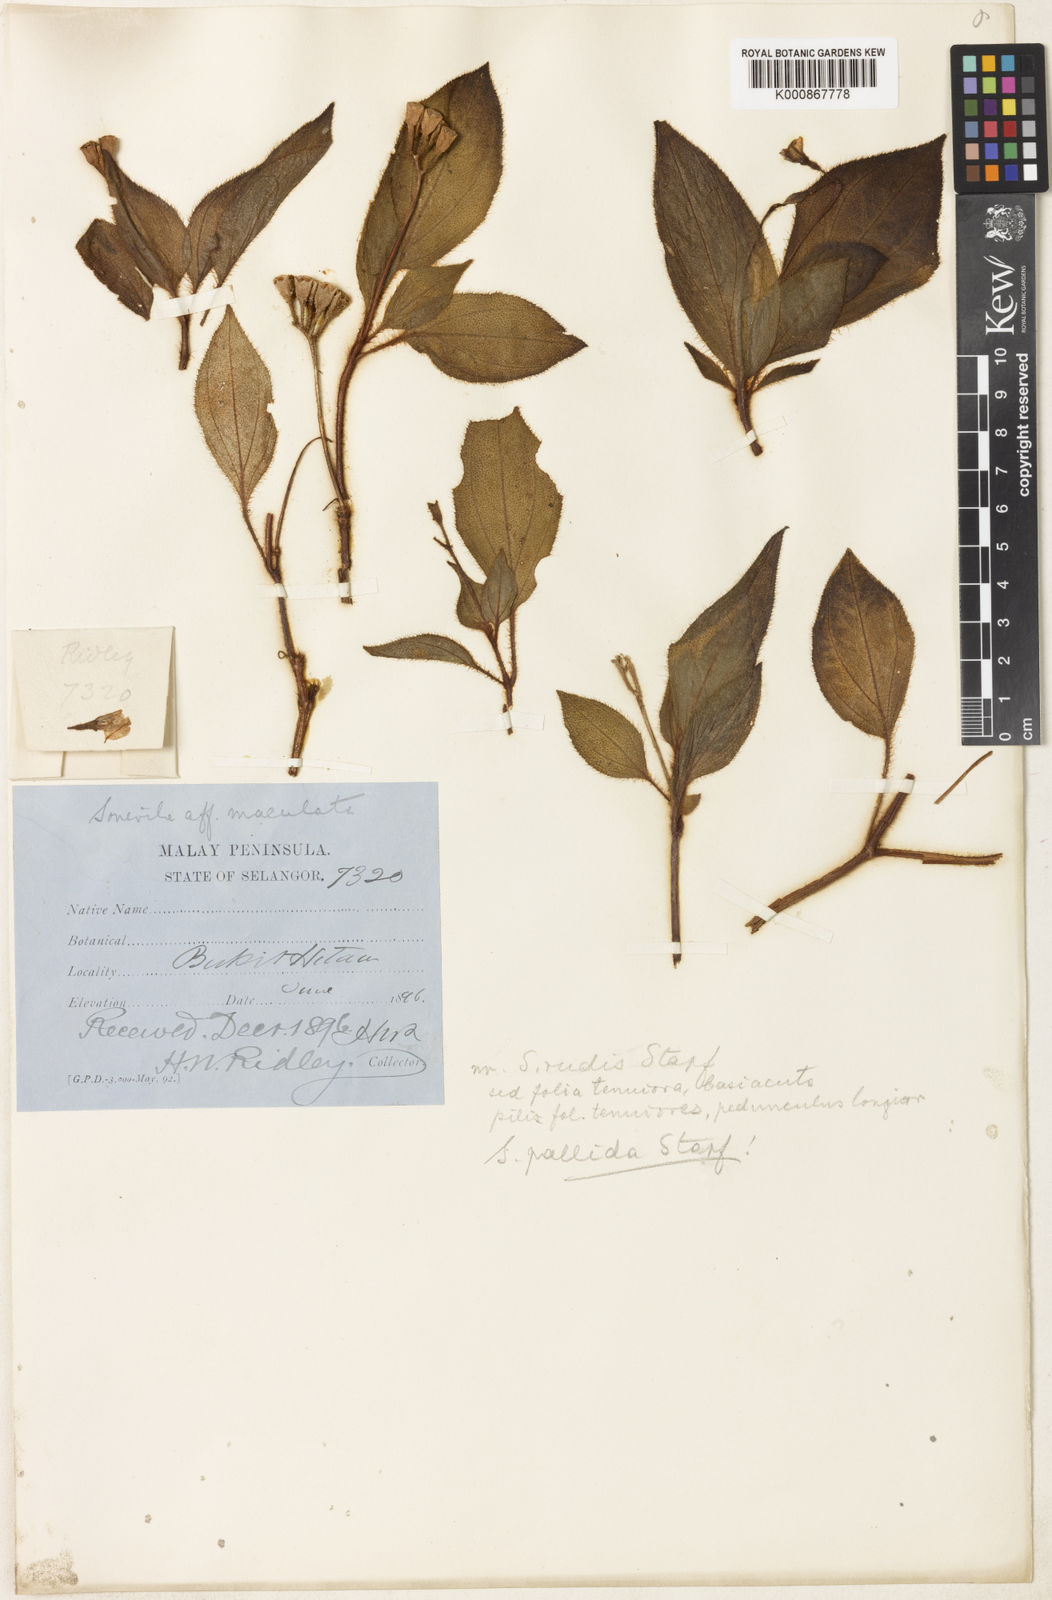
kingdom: Plantae
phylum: Tracheophyta
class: Magnoliopsida
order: Myrtales
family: Melastomataceae
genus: Sonerila
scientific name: Sonerila pallida
